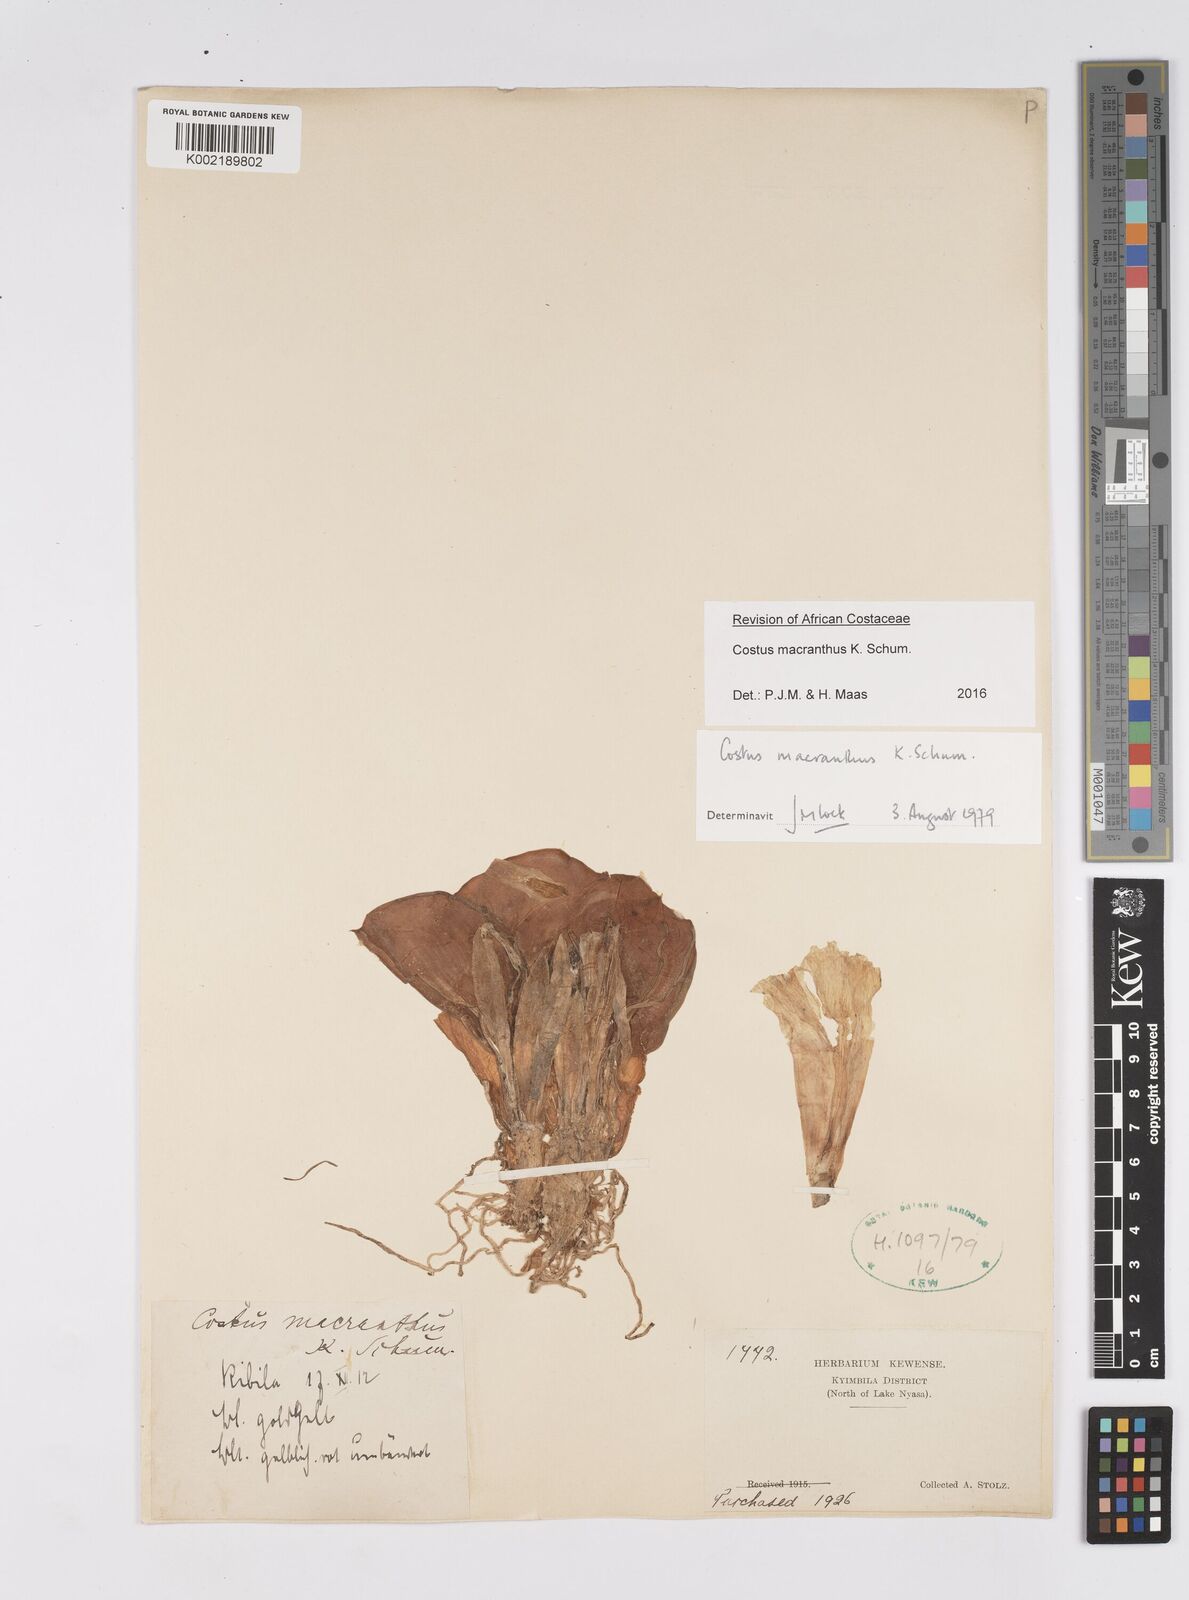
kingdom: Plantae
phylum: Tracheophyta
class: Liliopsida
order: Zingiberales
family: Costaceae
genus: Costus
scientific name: Costus macranthus
